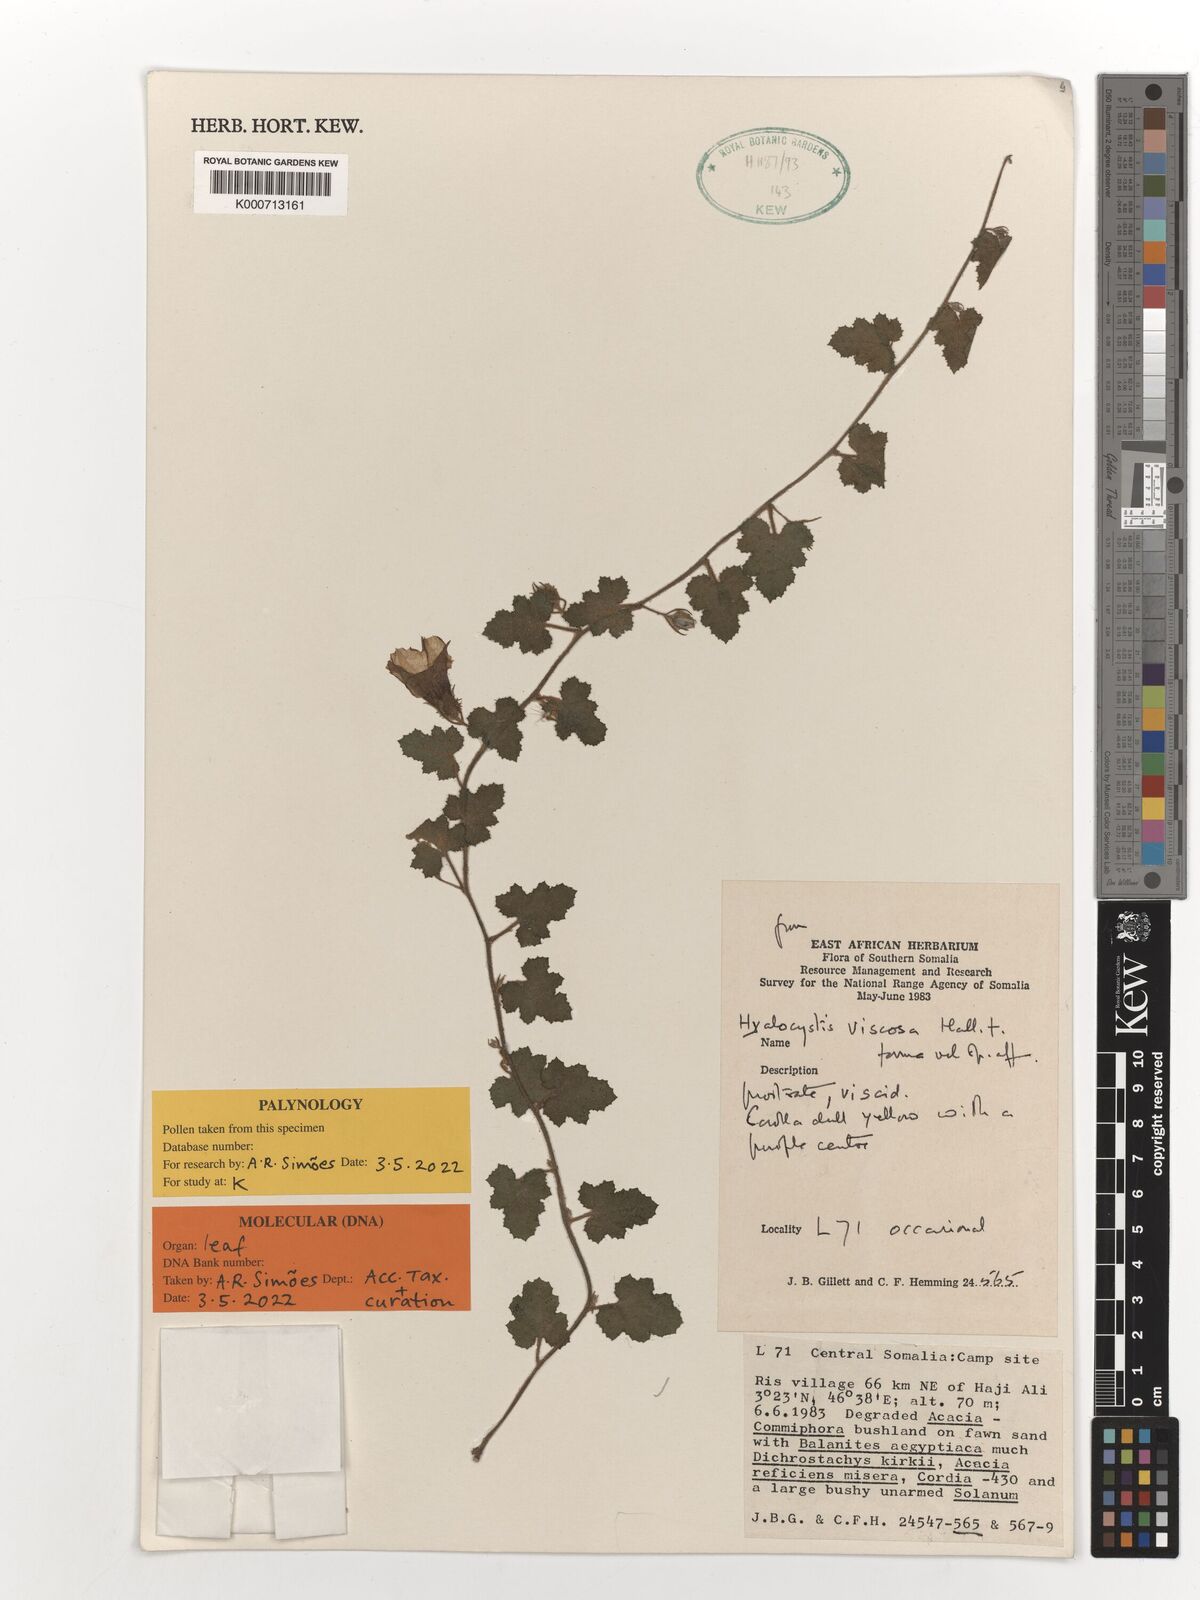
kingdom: Plantae
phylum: Tracheophyta
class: Magnoliopsida
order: Solanales
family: Convolvulaceae
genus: Hyalocystis
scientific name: Hyalocystis viscosa
